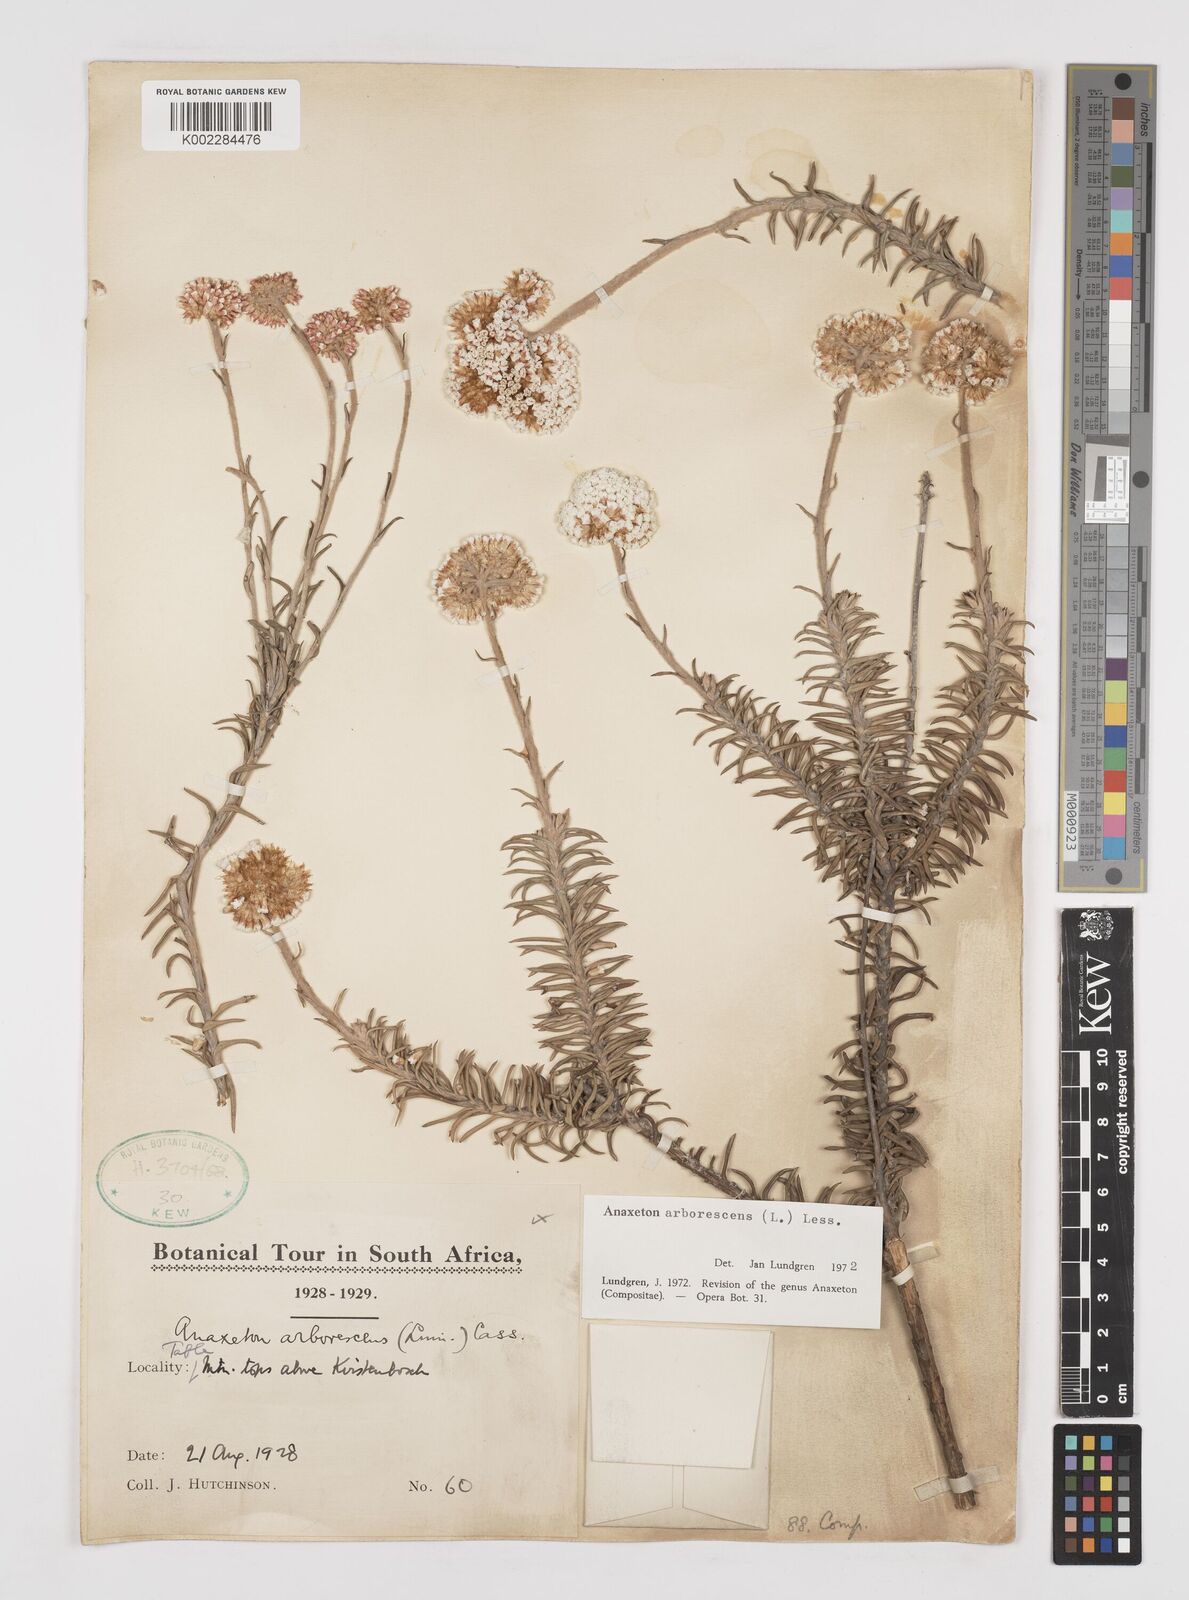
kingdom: Plantae
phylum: Tracheophyta
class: Magnoliopsida
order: Asterales
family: Asteraceae
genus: Anaxeton
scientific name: Anaxeton arborescens
